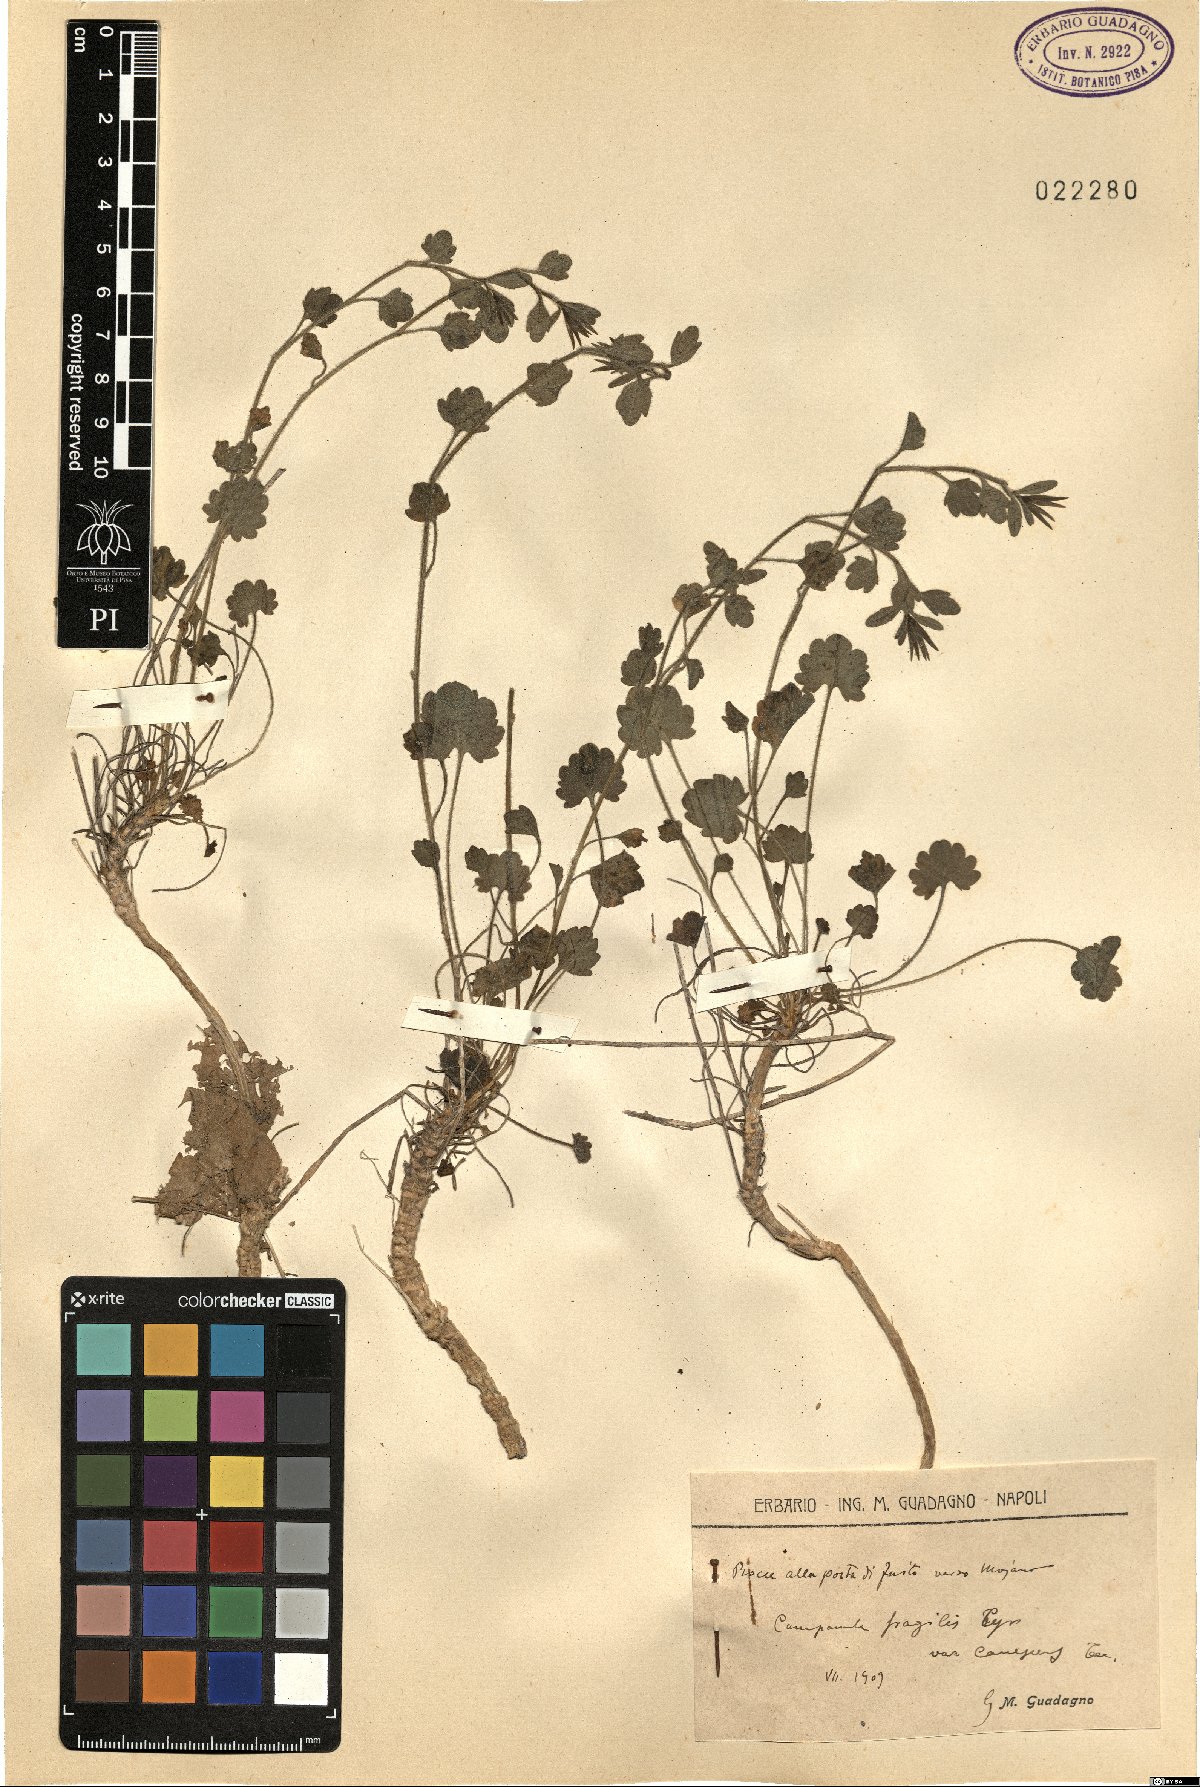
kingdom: Plantae
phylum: Tracheophyta
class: Magnoliopsida
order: Asterales
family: Campanulaceae
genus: Campanula
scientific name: Campanula fragilis
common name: Italian bellflower
